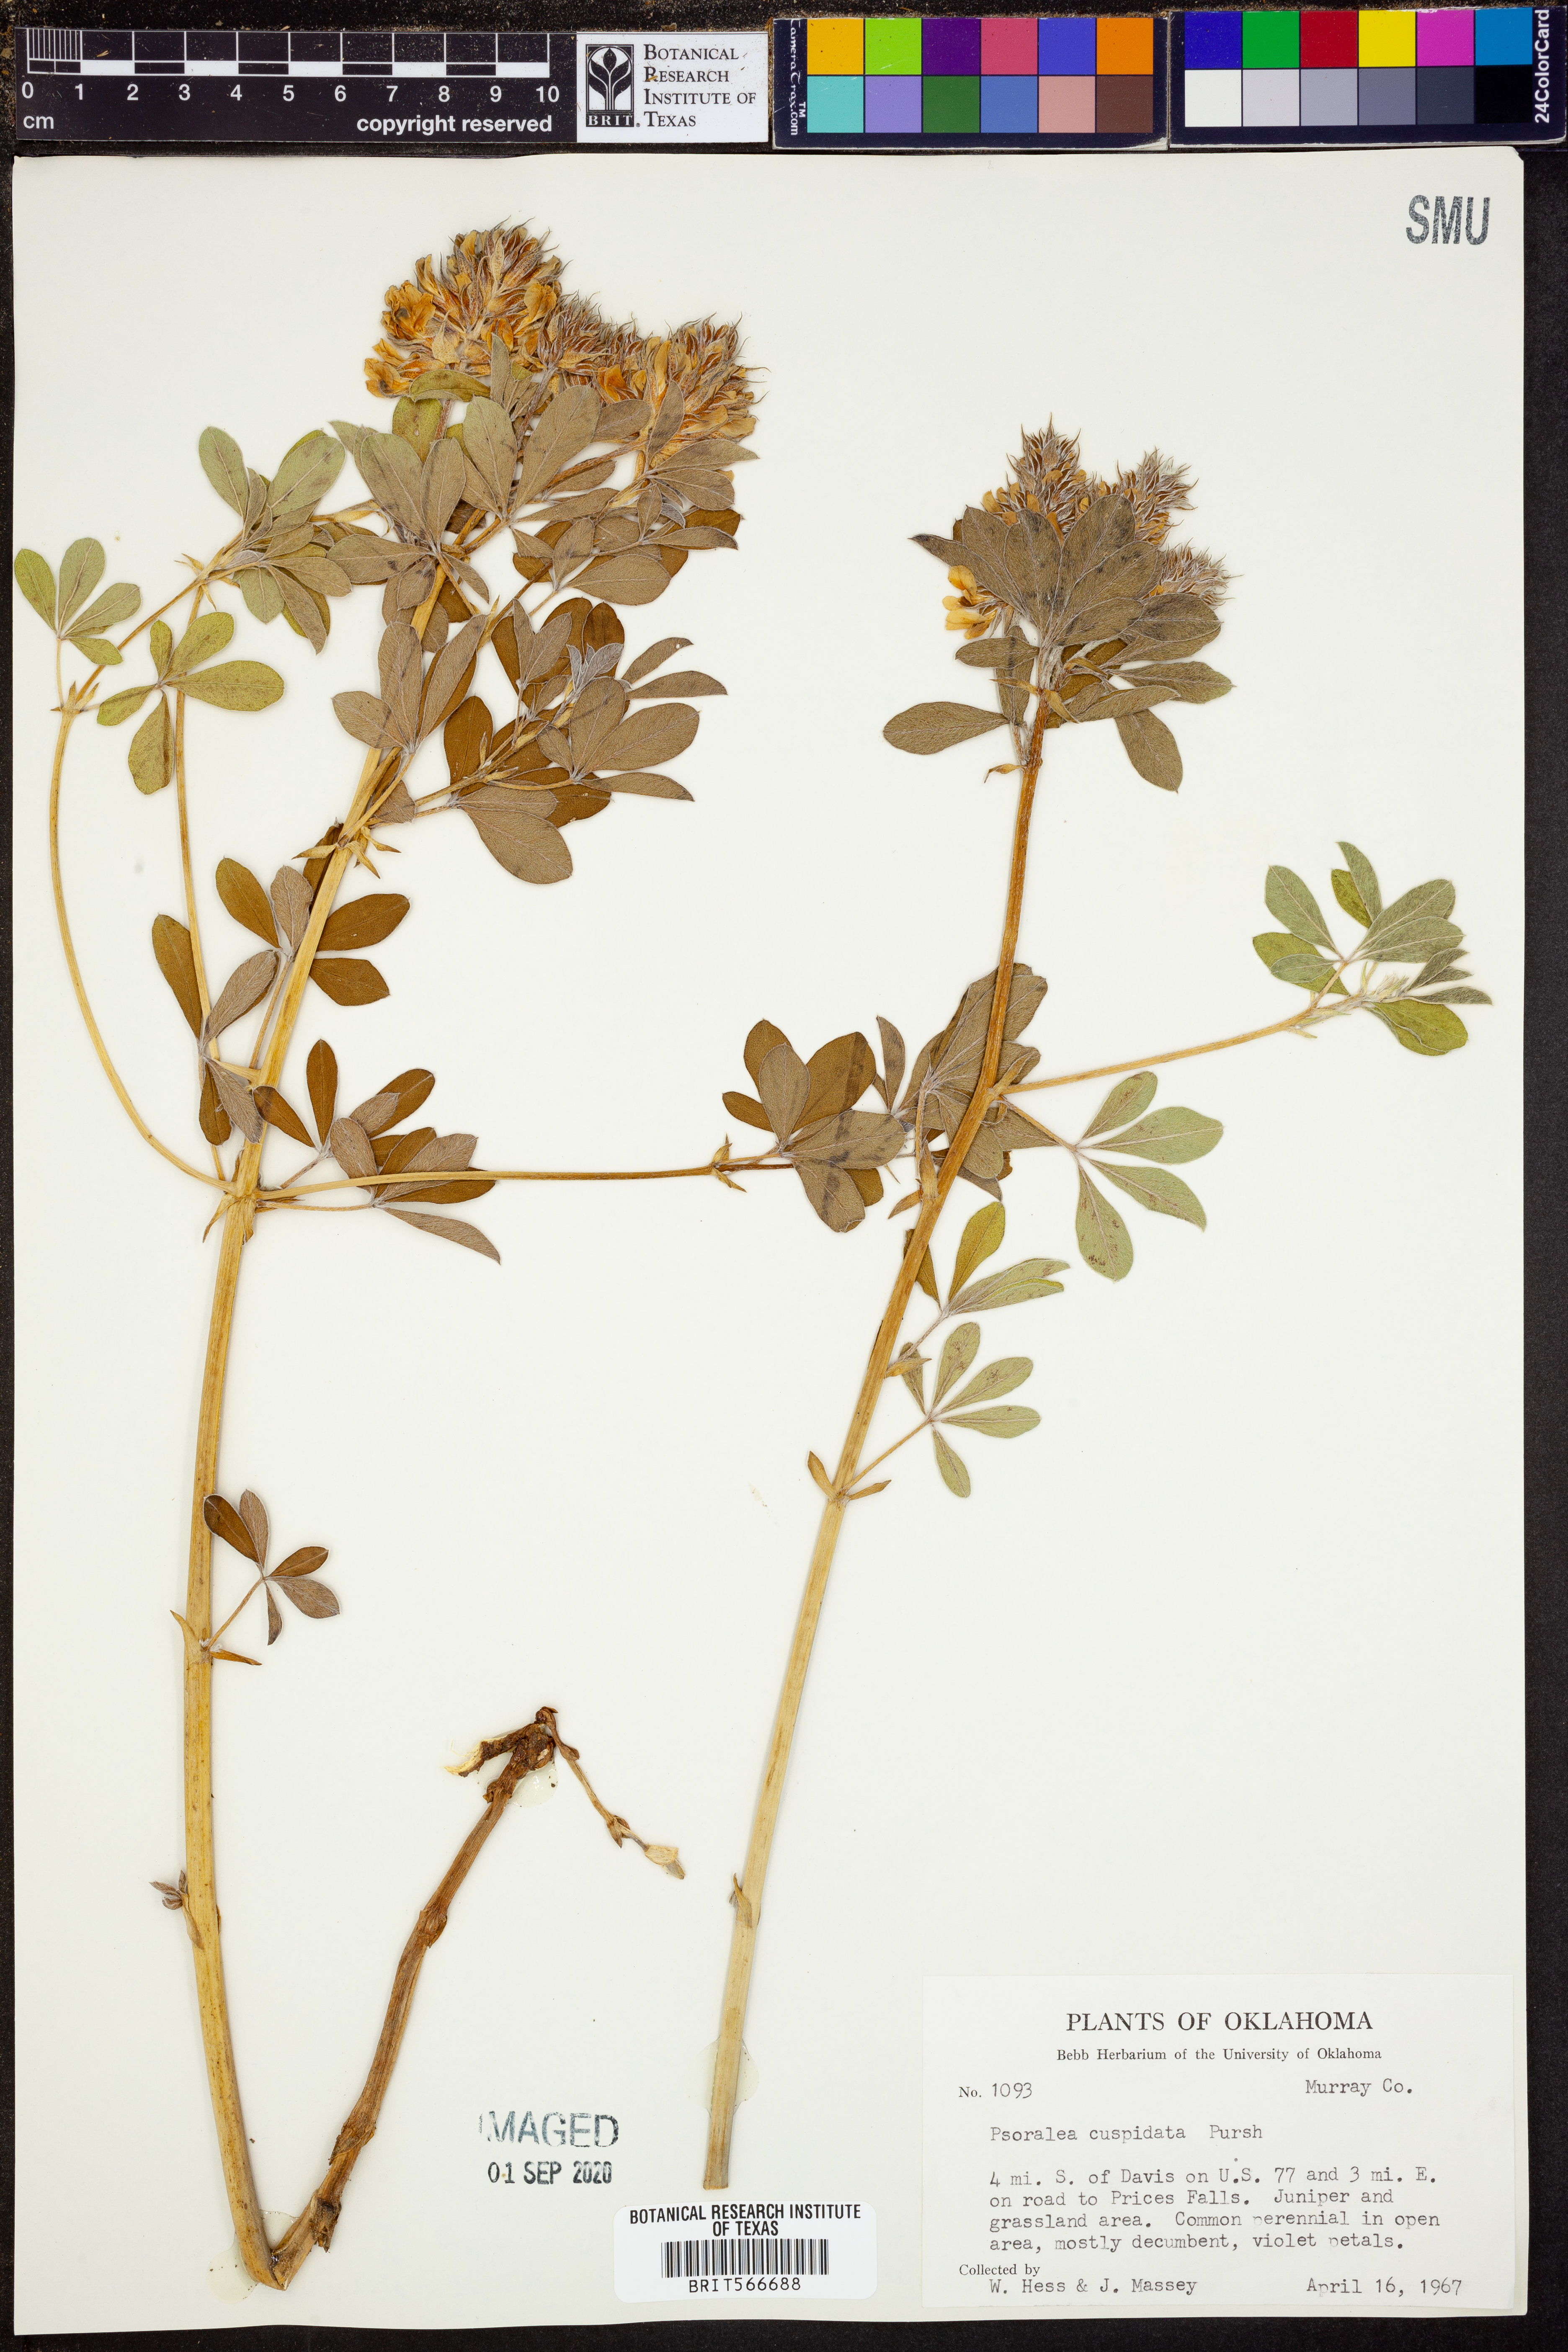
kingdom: Plantae
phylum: Tracheophyta
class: Magnoliopsida
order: Fabales
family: Fabaceae
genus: Pediomelum
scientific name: Pediomelum cuspidatum
